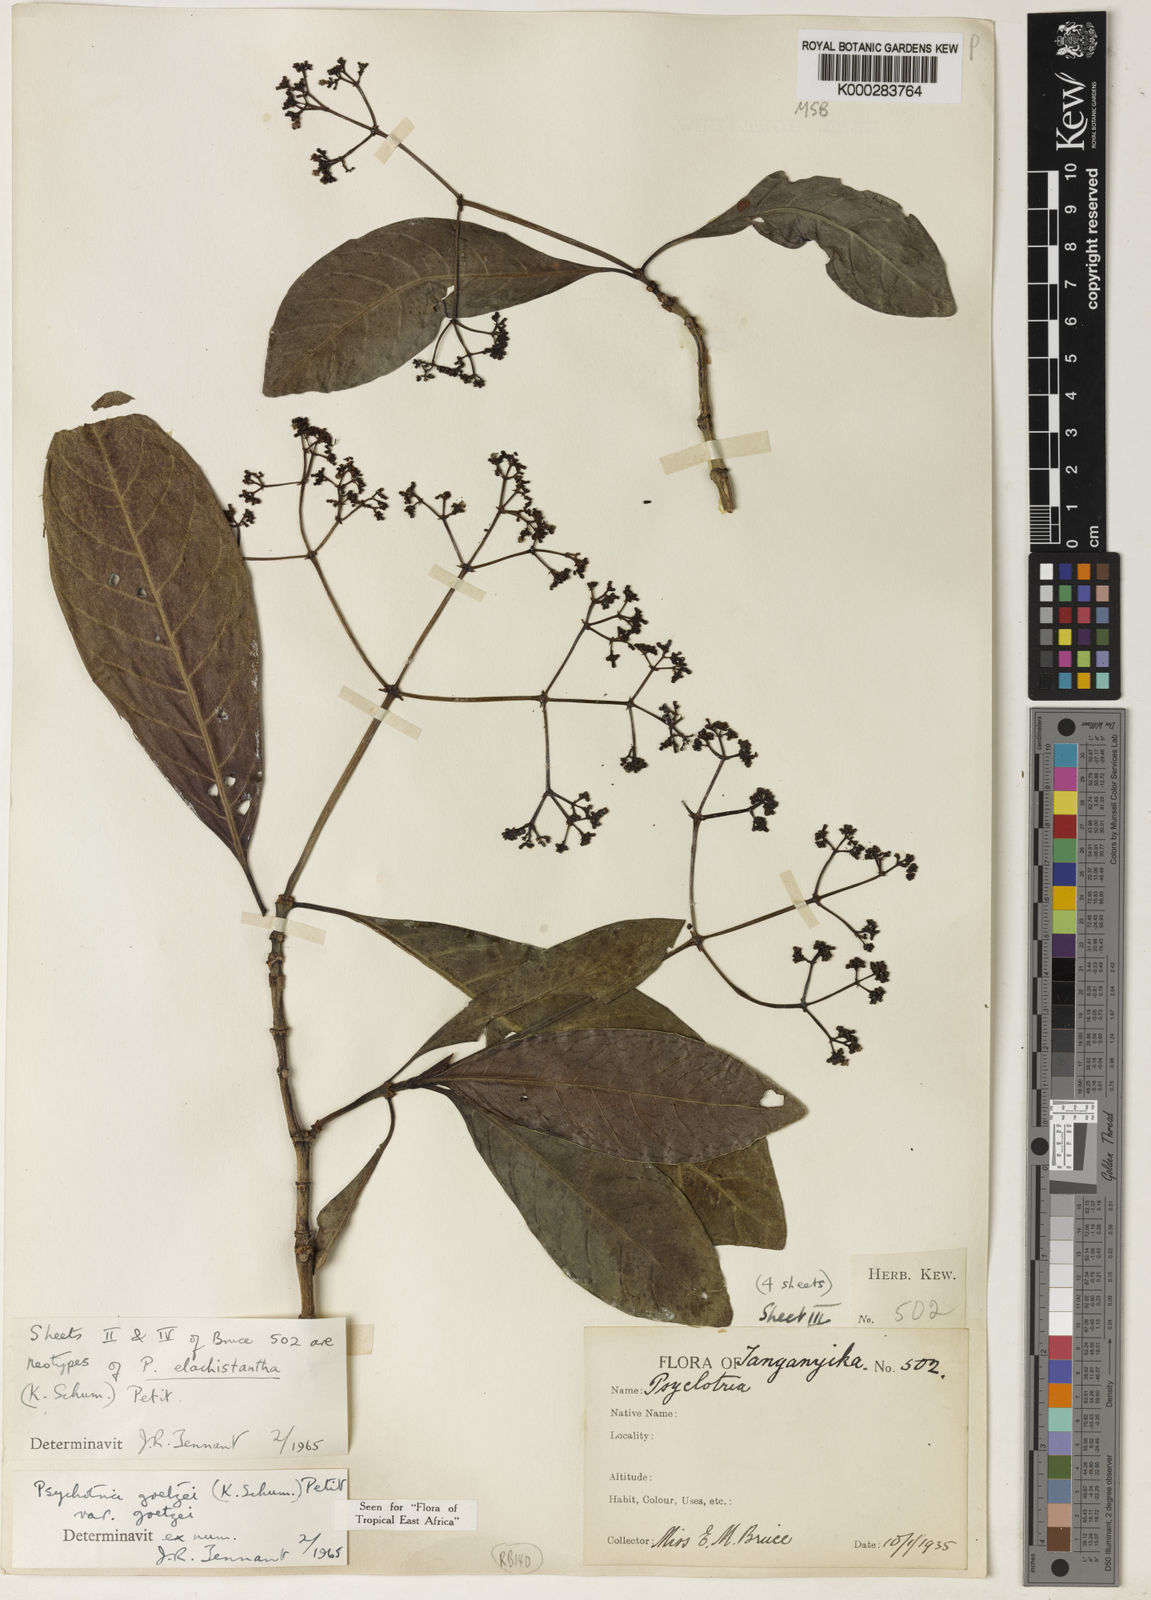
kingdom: Plantae
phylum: Tracheophyta
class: Magnoliopsida
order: Gentianales
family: Rubiaceae
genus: Psychotria
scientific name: Psychotria elachistantha
